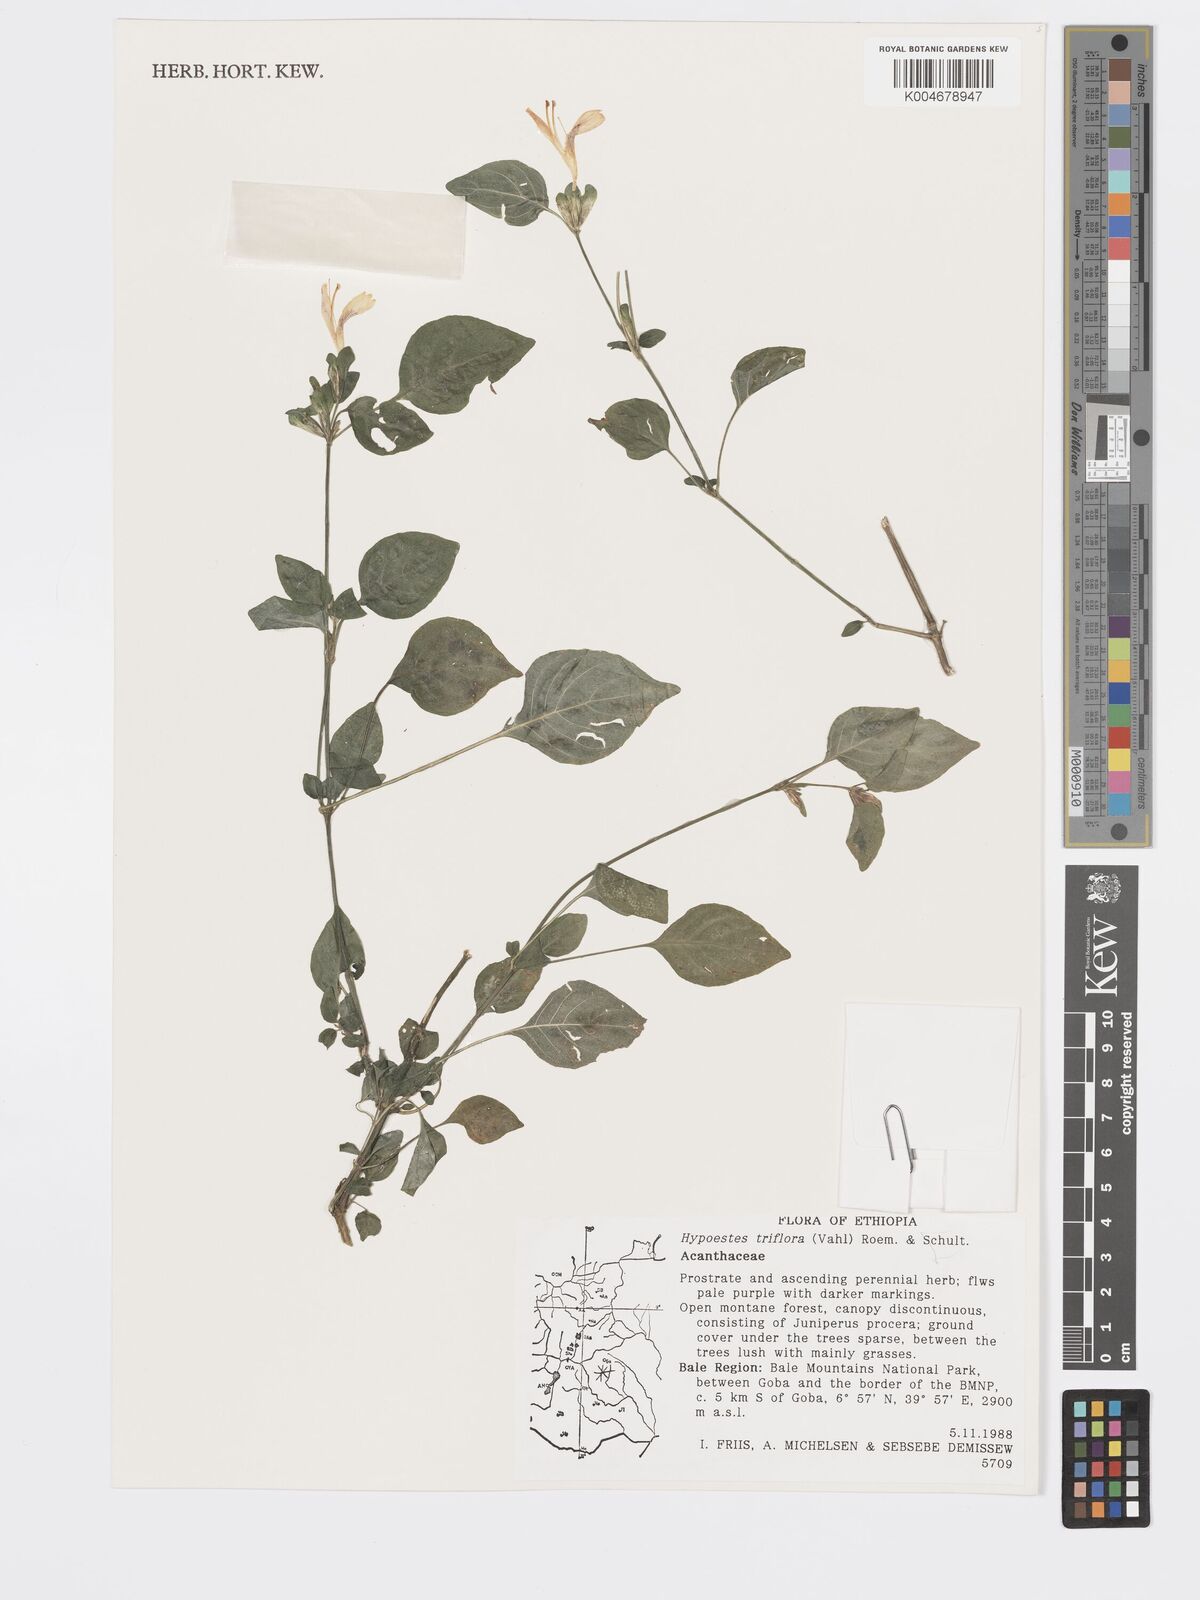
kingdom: Plantae
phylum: Tracheophyta
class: Magnoliopsida
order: Lamiales
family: Acanthaceae
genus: Hypoestes
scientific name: Hypoestes triflora
